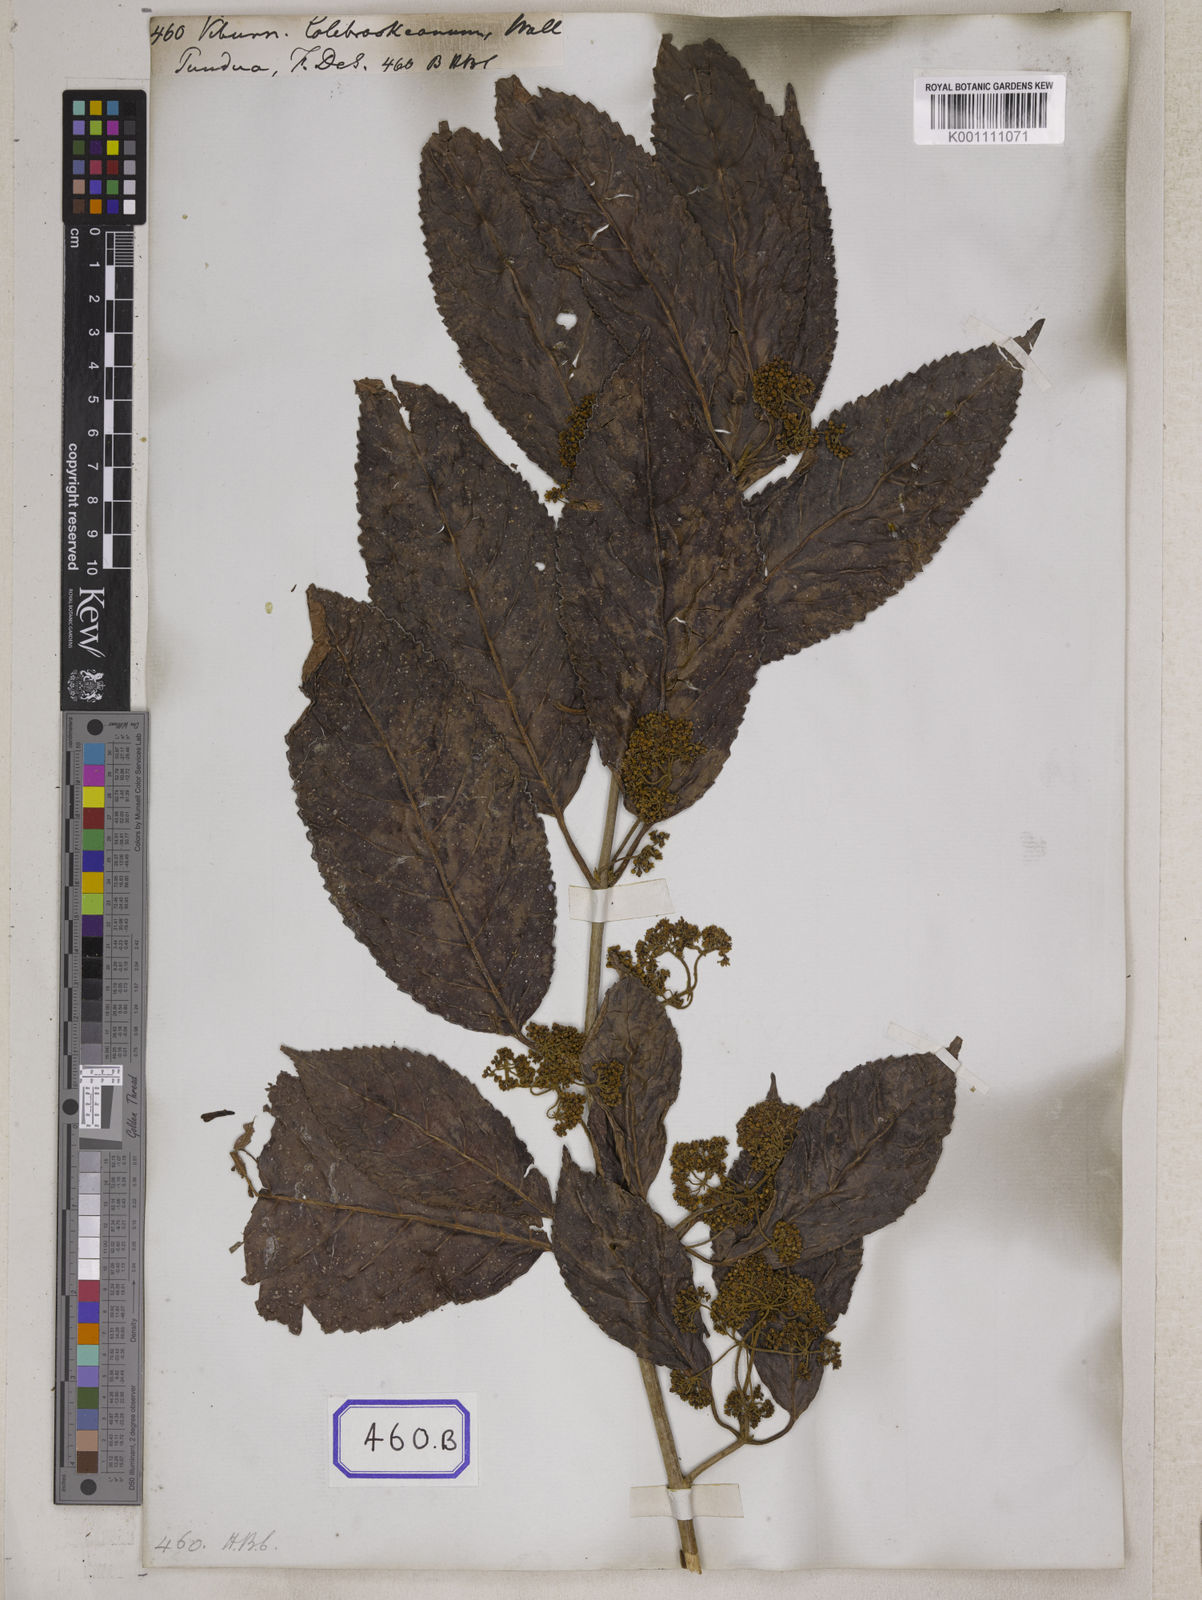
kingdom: Plantae
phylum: Tracheophyta
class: Magnoliopsida
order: Dipsacales
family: Viburnaceae
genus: Viburnum
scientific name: Viburnum
